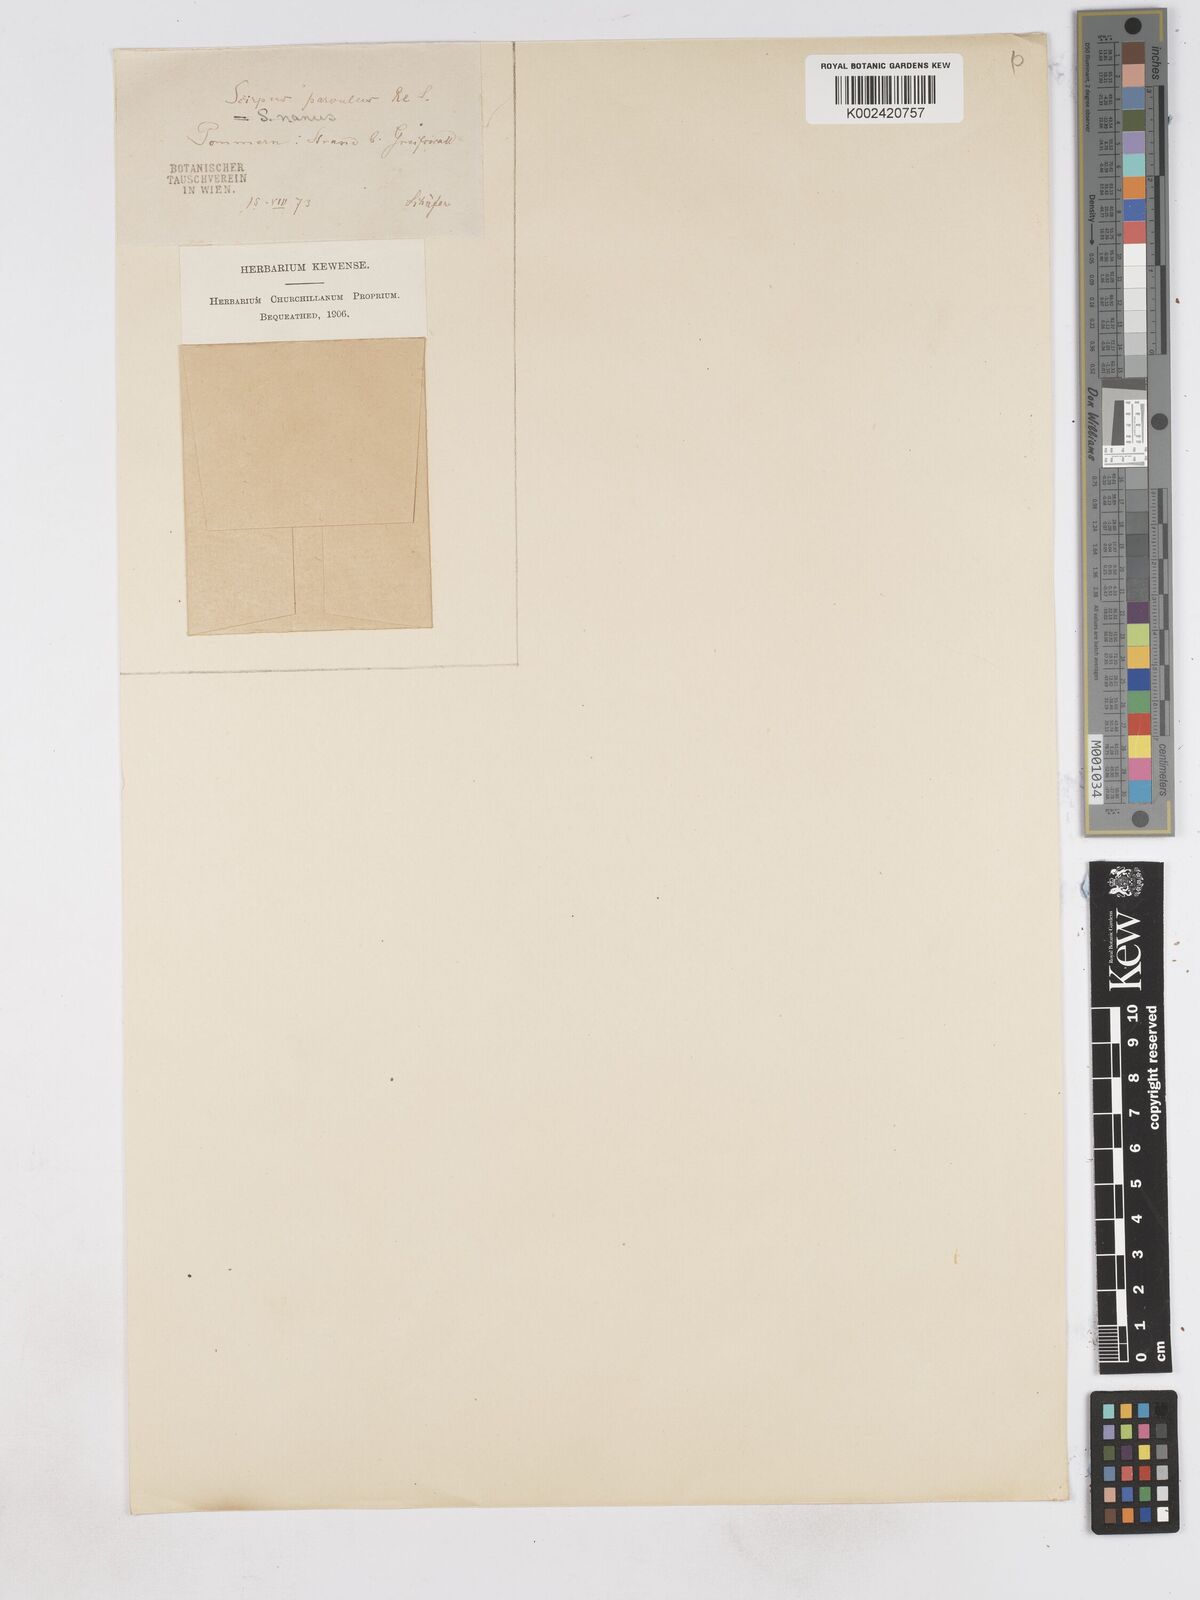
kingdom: Plantae
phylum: Tracheophyta
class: Liliopsida
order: Poales
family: Cyperaceae
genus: Eleocharis
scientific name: Eleocharis parvula
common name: Dwarf spike-rush
